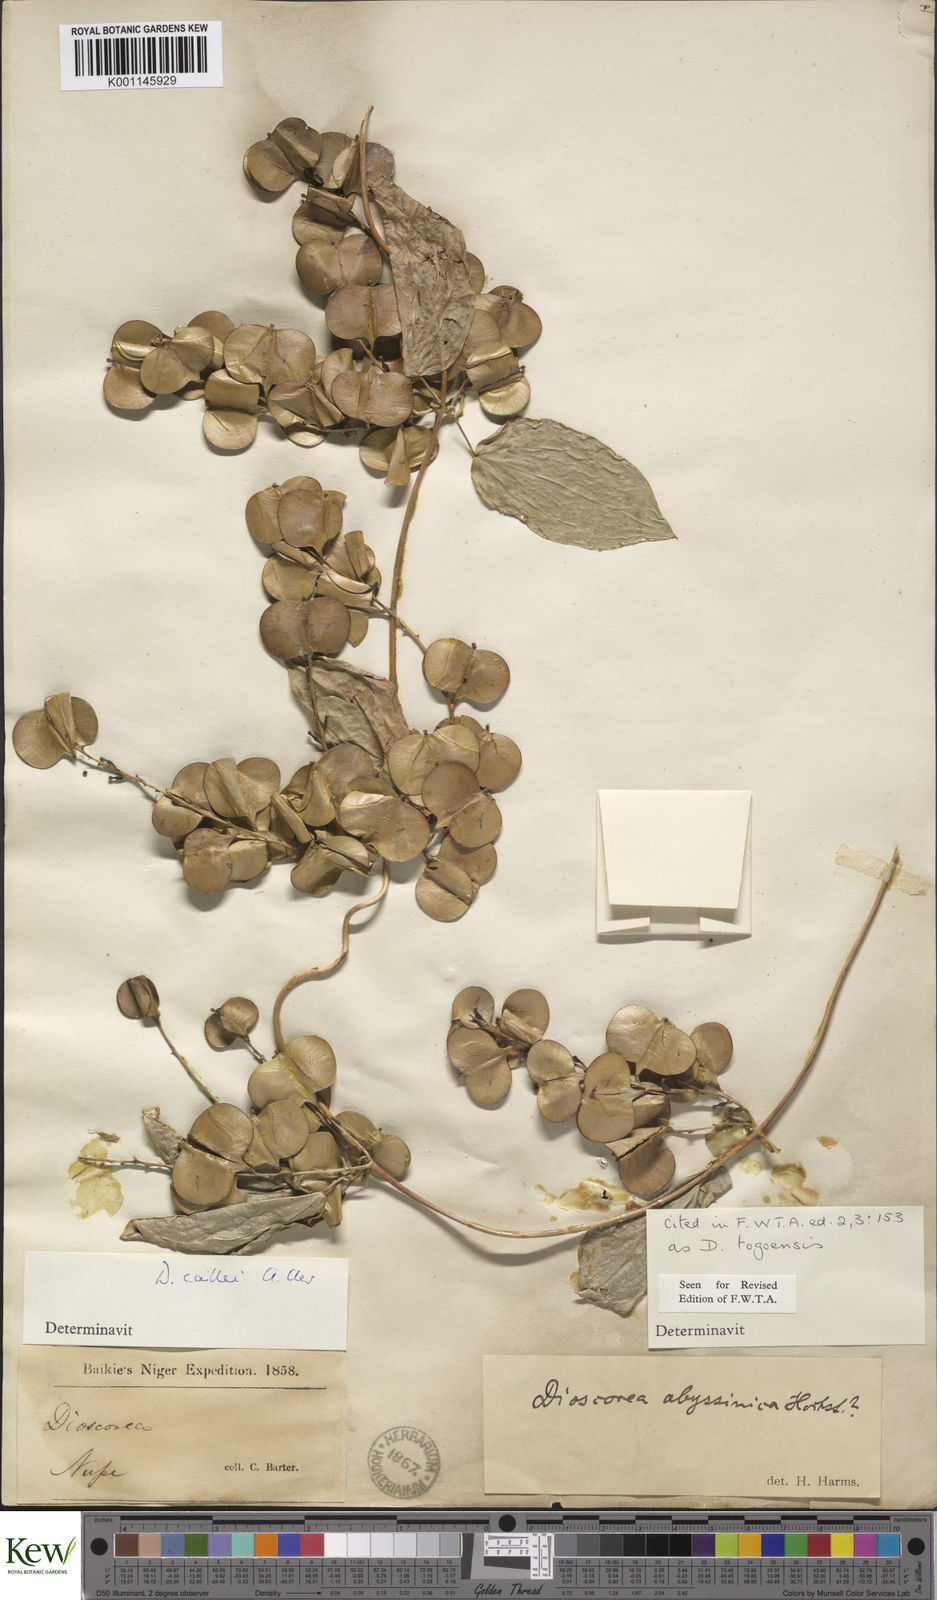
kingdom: Plantae
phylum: Tracheophyta
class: Liliopsida
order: Dioscoreales
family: Dioscoreaceae
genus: Dioscorea
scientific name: Dioscorea togoensis
